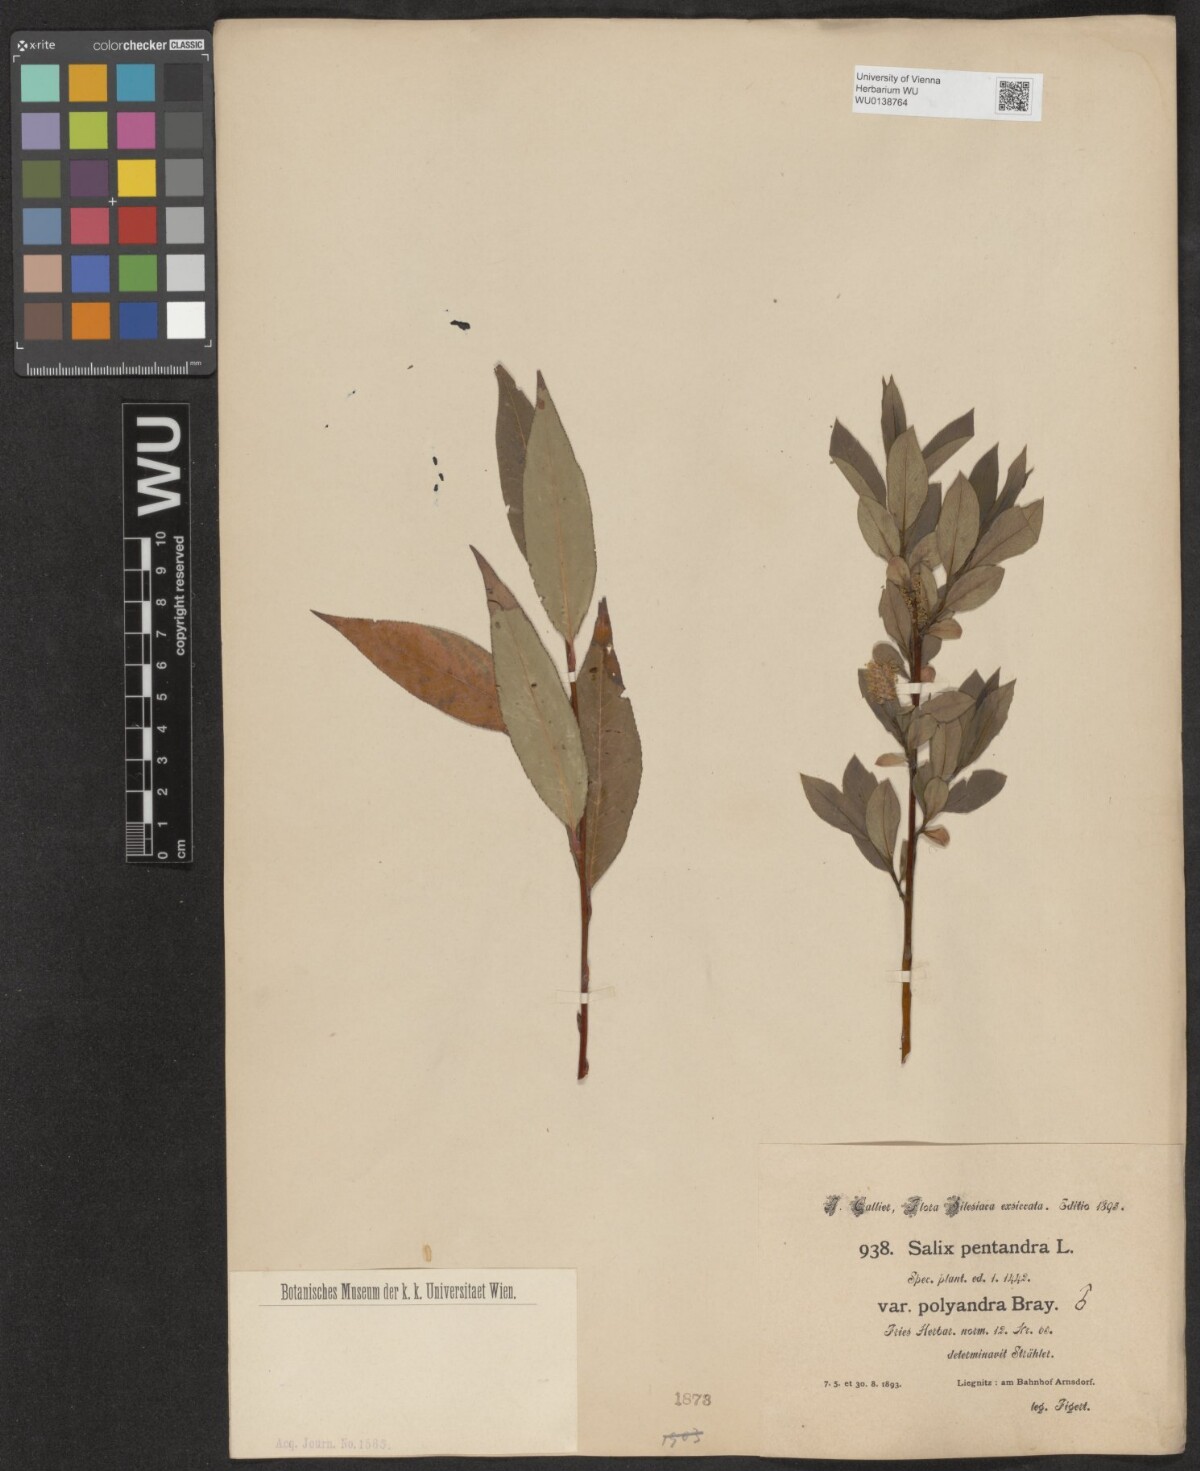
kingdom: Plantae
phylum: Tracheophyta
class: Magnoliopsida
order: Malpighiales
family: Salicaceae
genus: Salix
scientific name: Salix pentandra
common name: Bay willow
